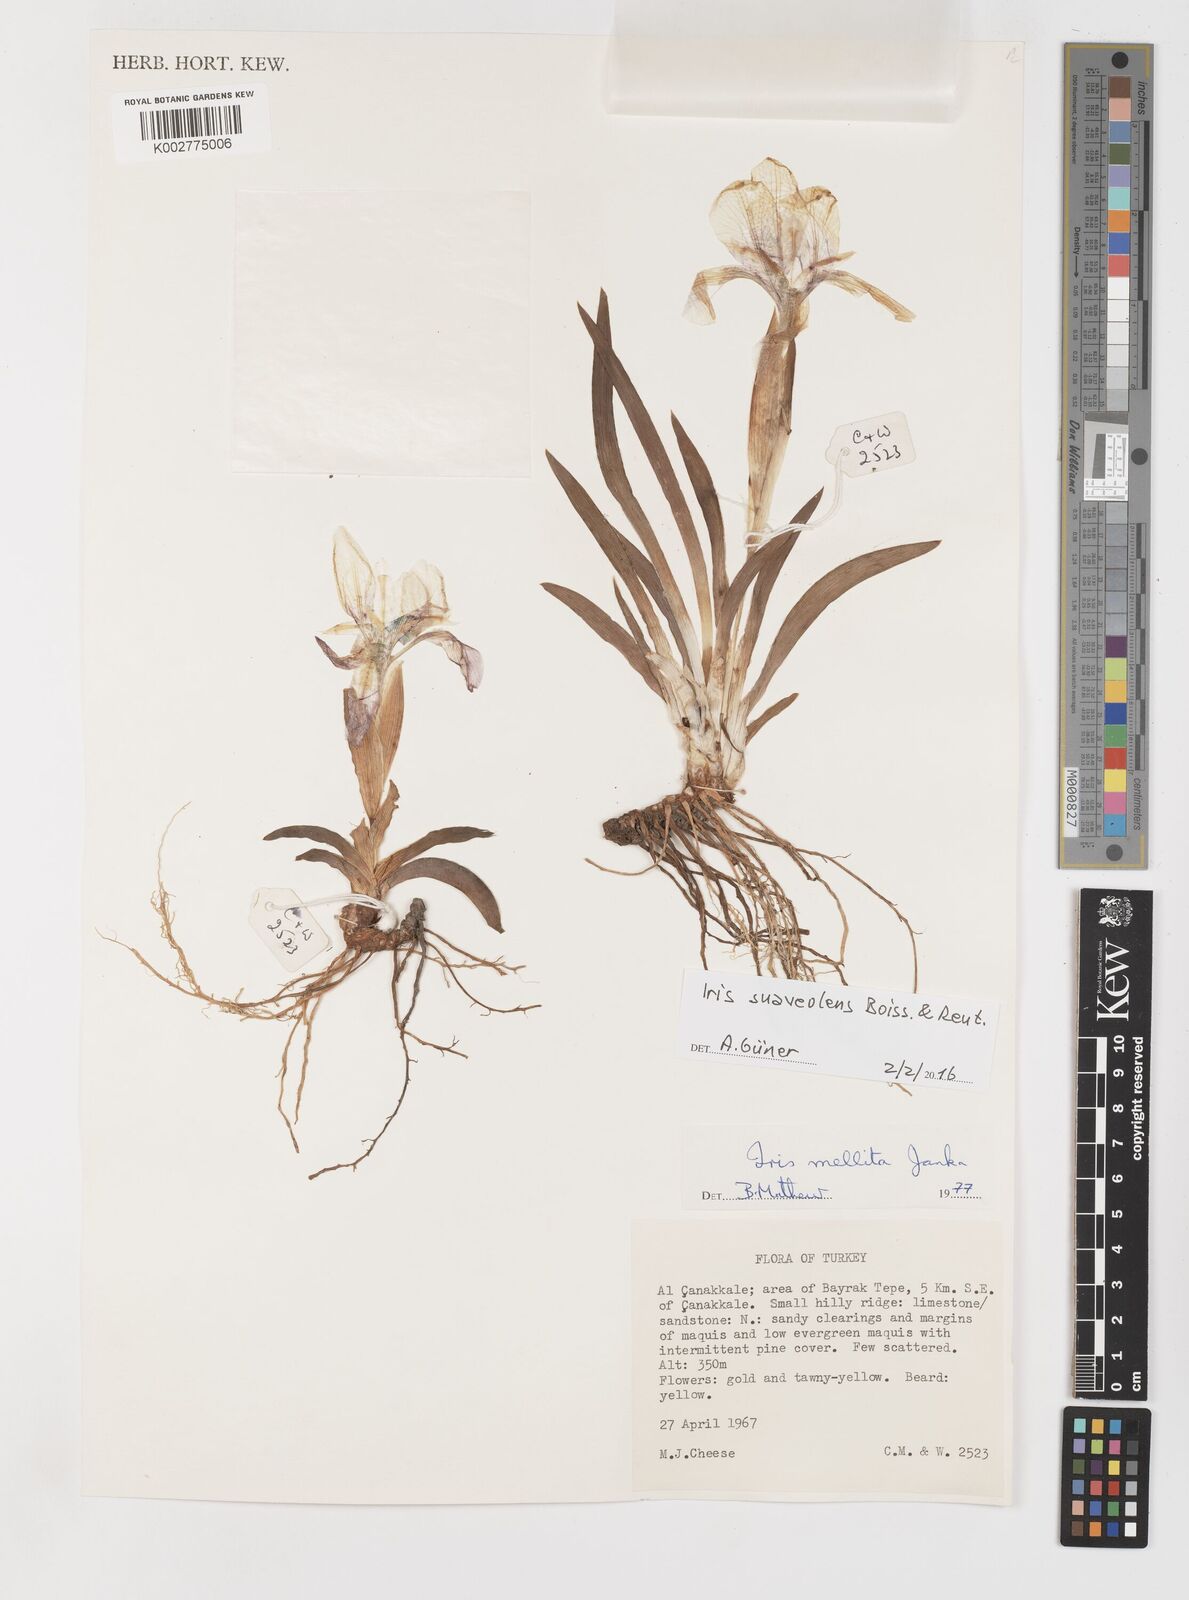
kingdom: Plantae
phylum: Tracheophyta
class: Liliopsida
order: Asparagales
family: Iridaceae
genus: Iris
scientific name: Iris suaveolens
